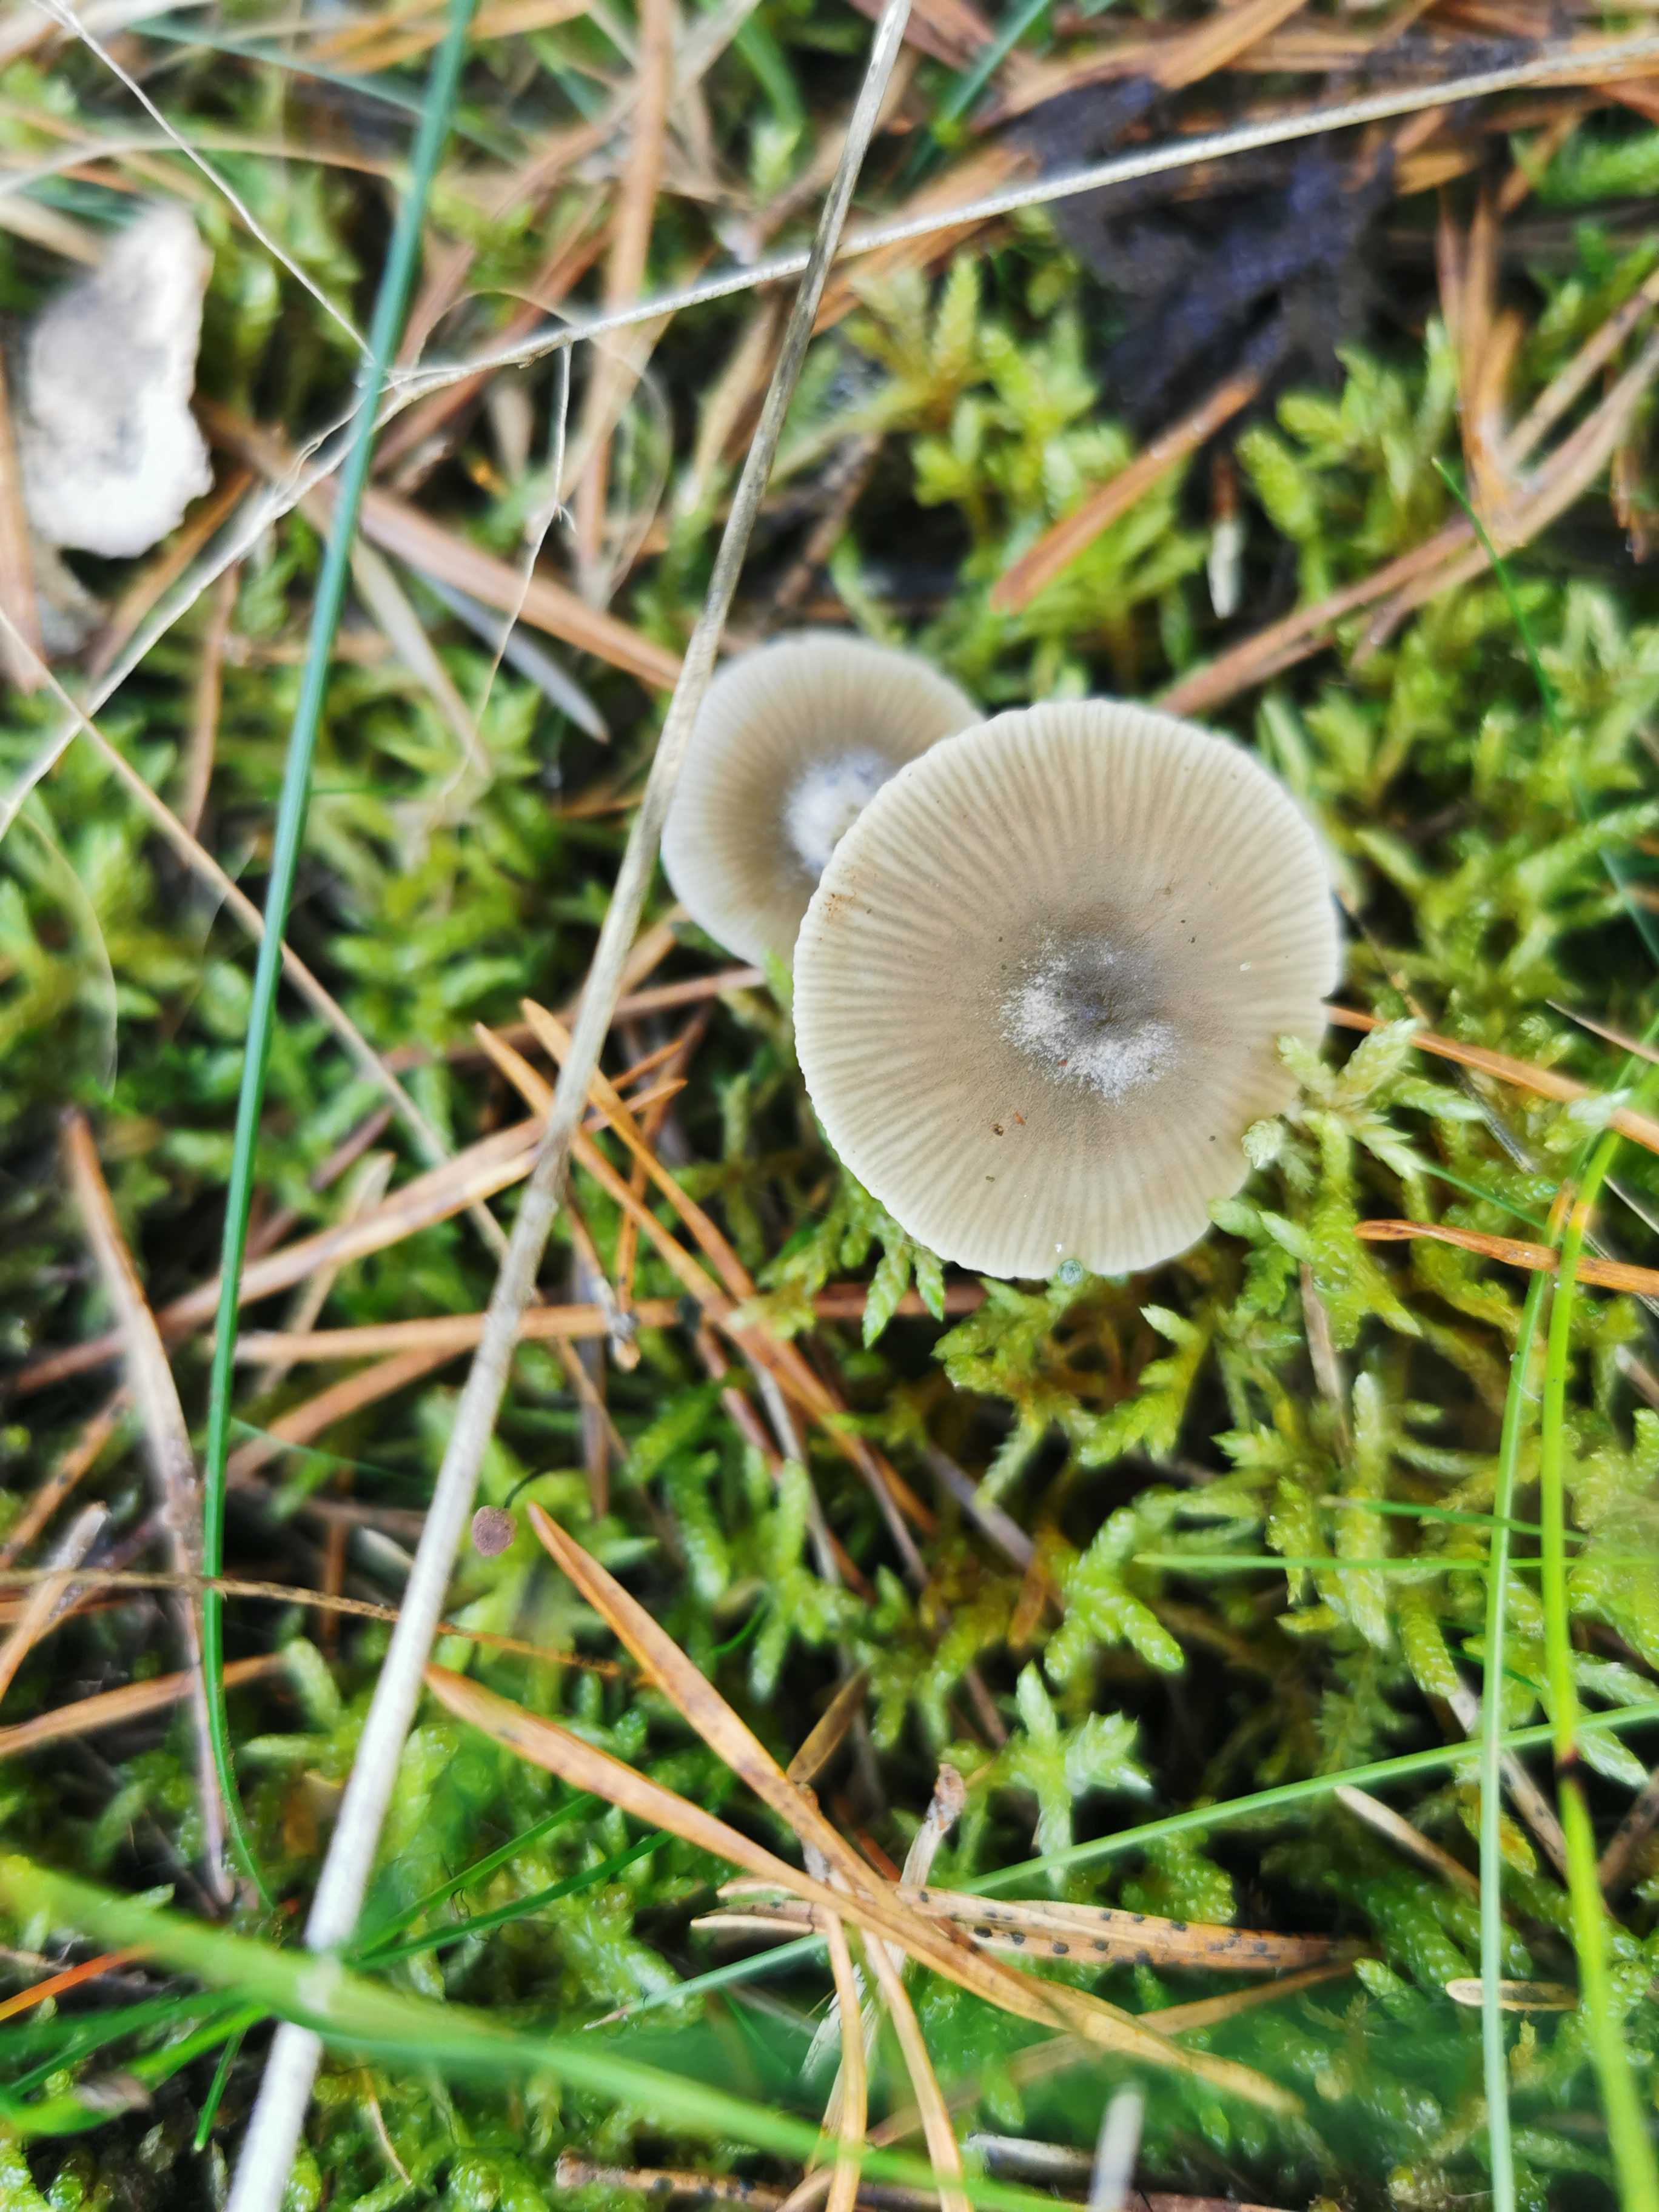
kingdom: Fungi
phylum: Basidiomycota
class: Agaricomycetes
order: Agaricales
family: Tricholomataceae
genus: Clitocybe
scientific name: Clitocybe
